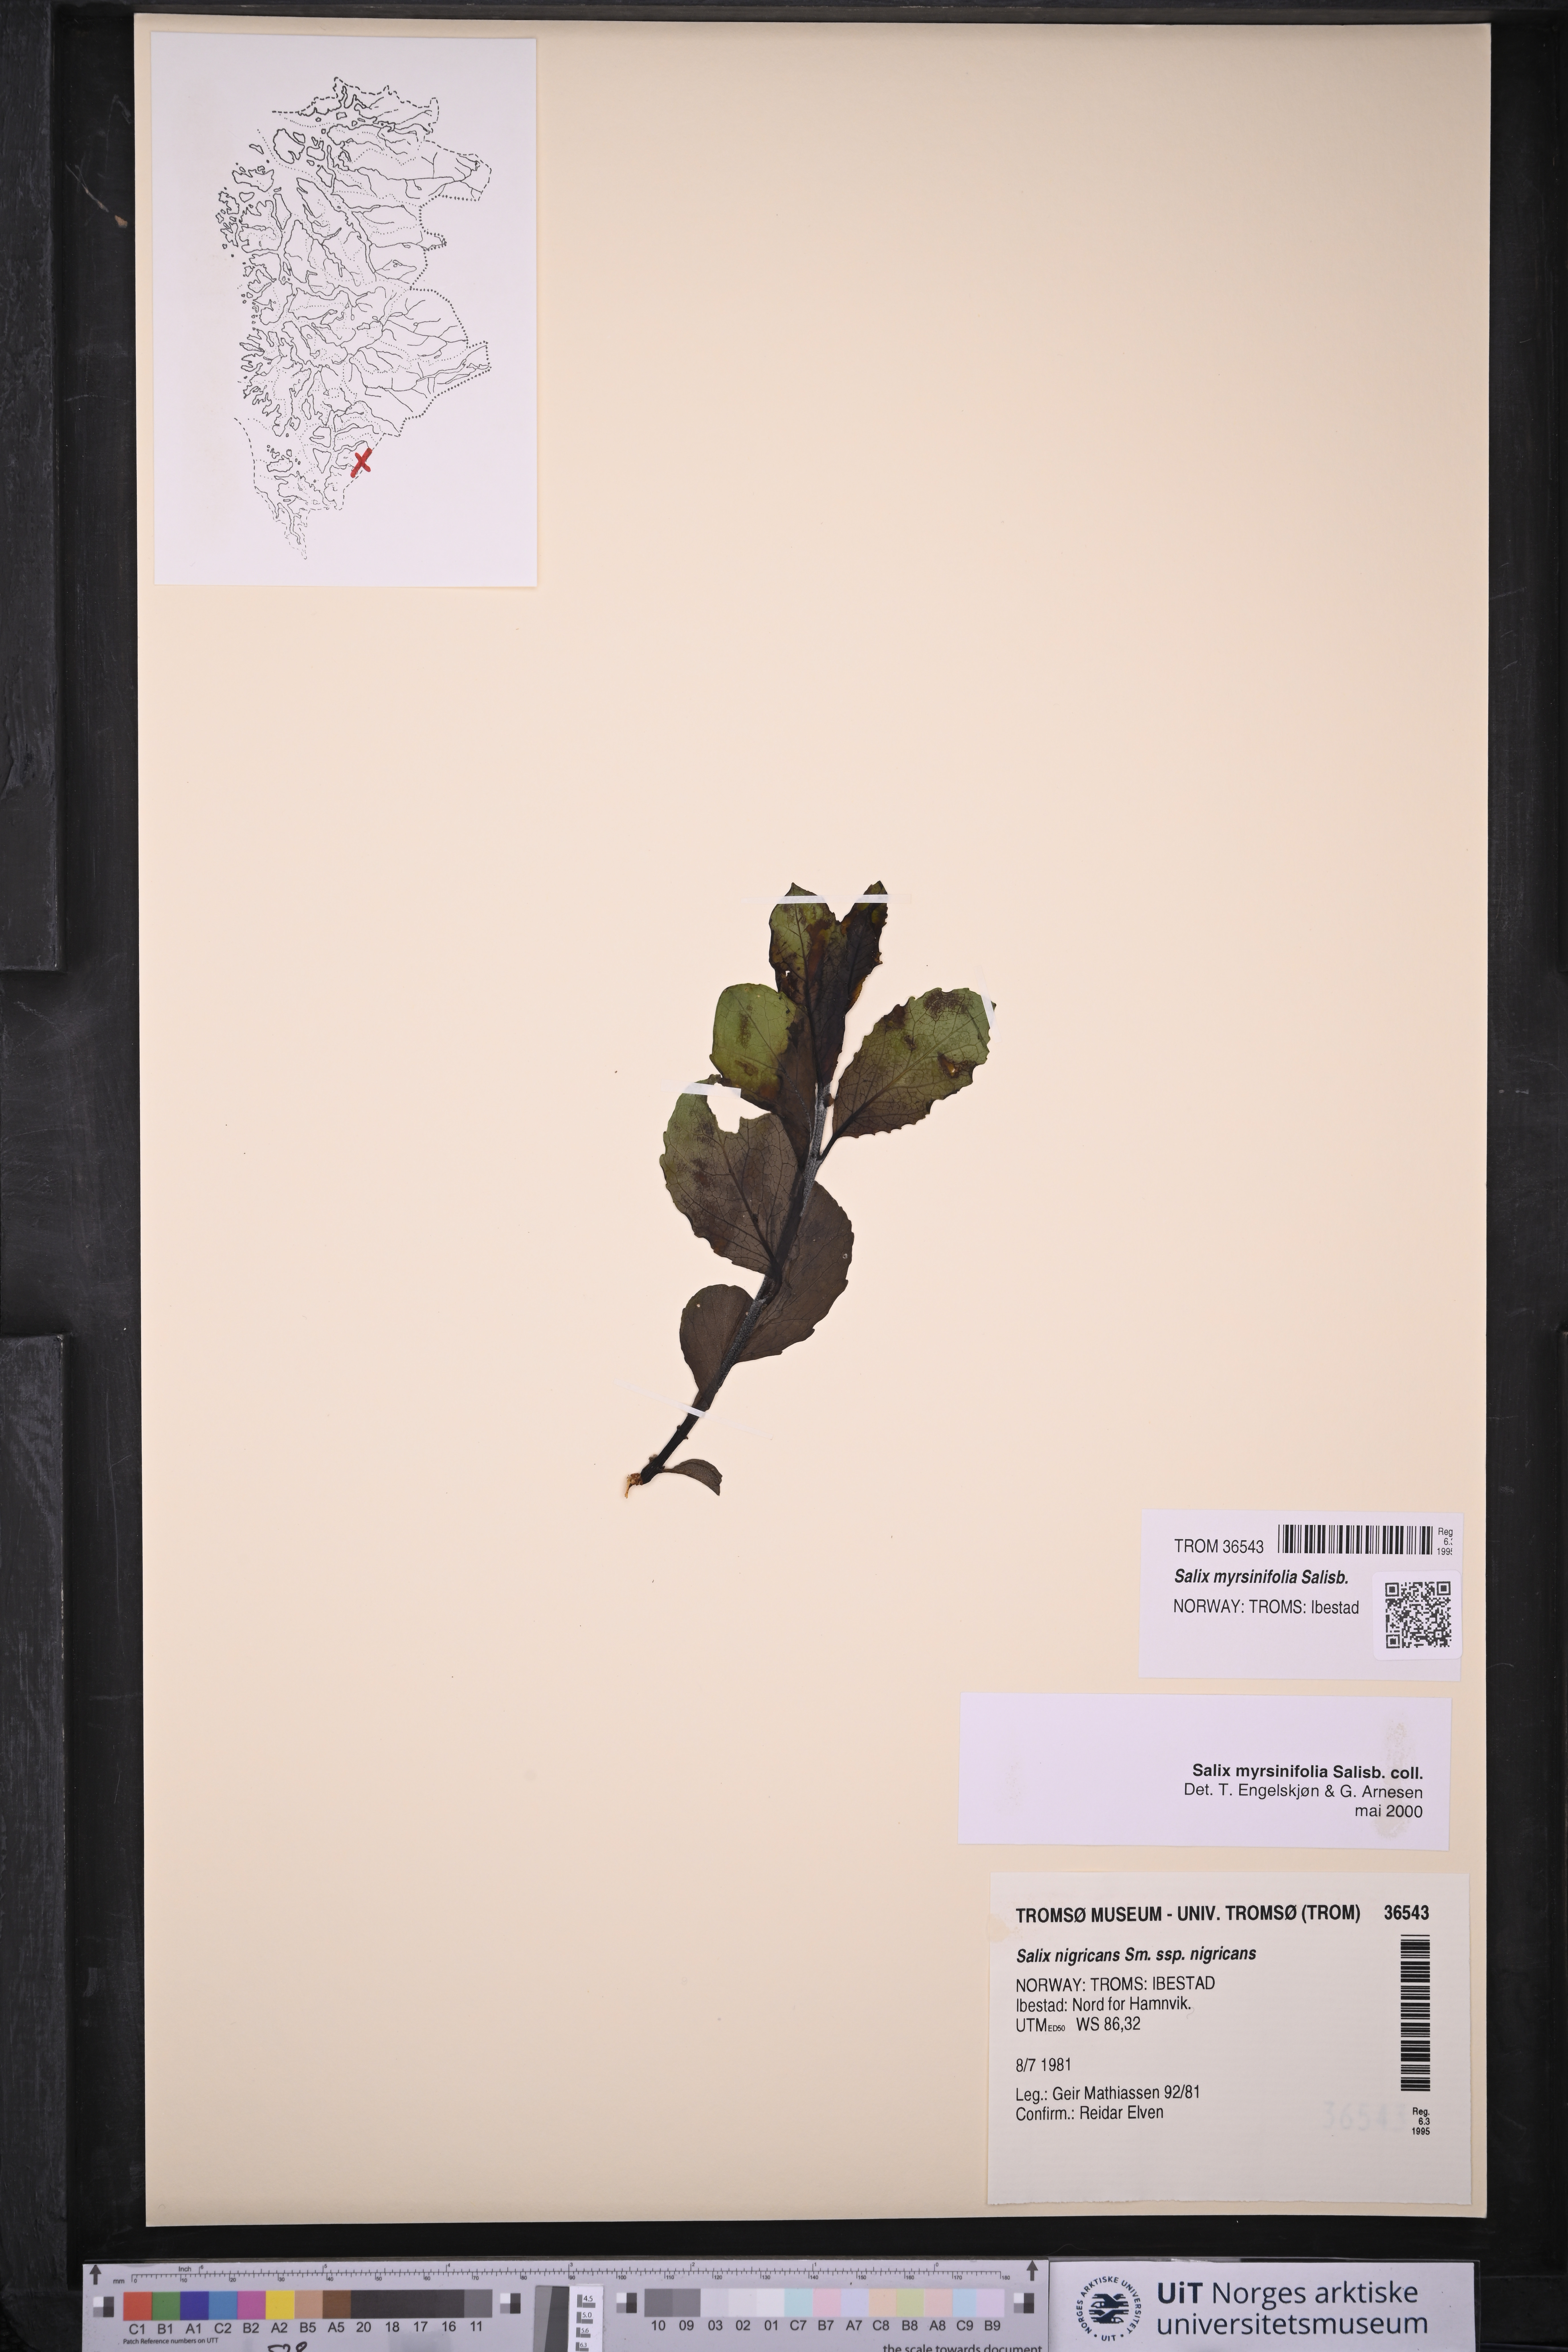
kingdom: Plantae
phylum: Tracheophyta
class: Magnoliopsida
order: Malpighiales
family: Salicaceae
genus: Salix
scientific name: Salix myrsinifolia
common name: Dark-leaved willow
